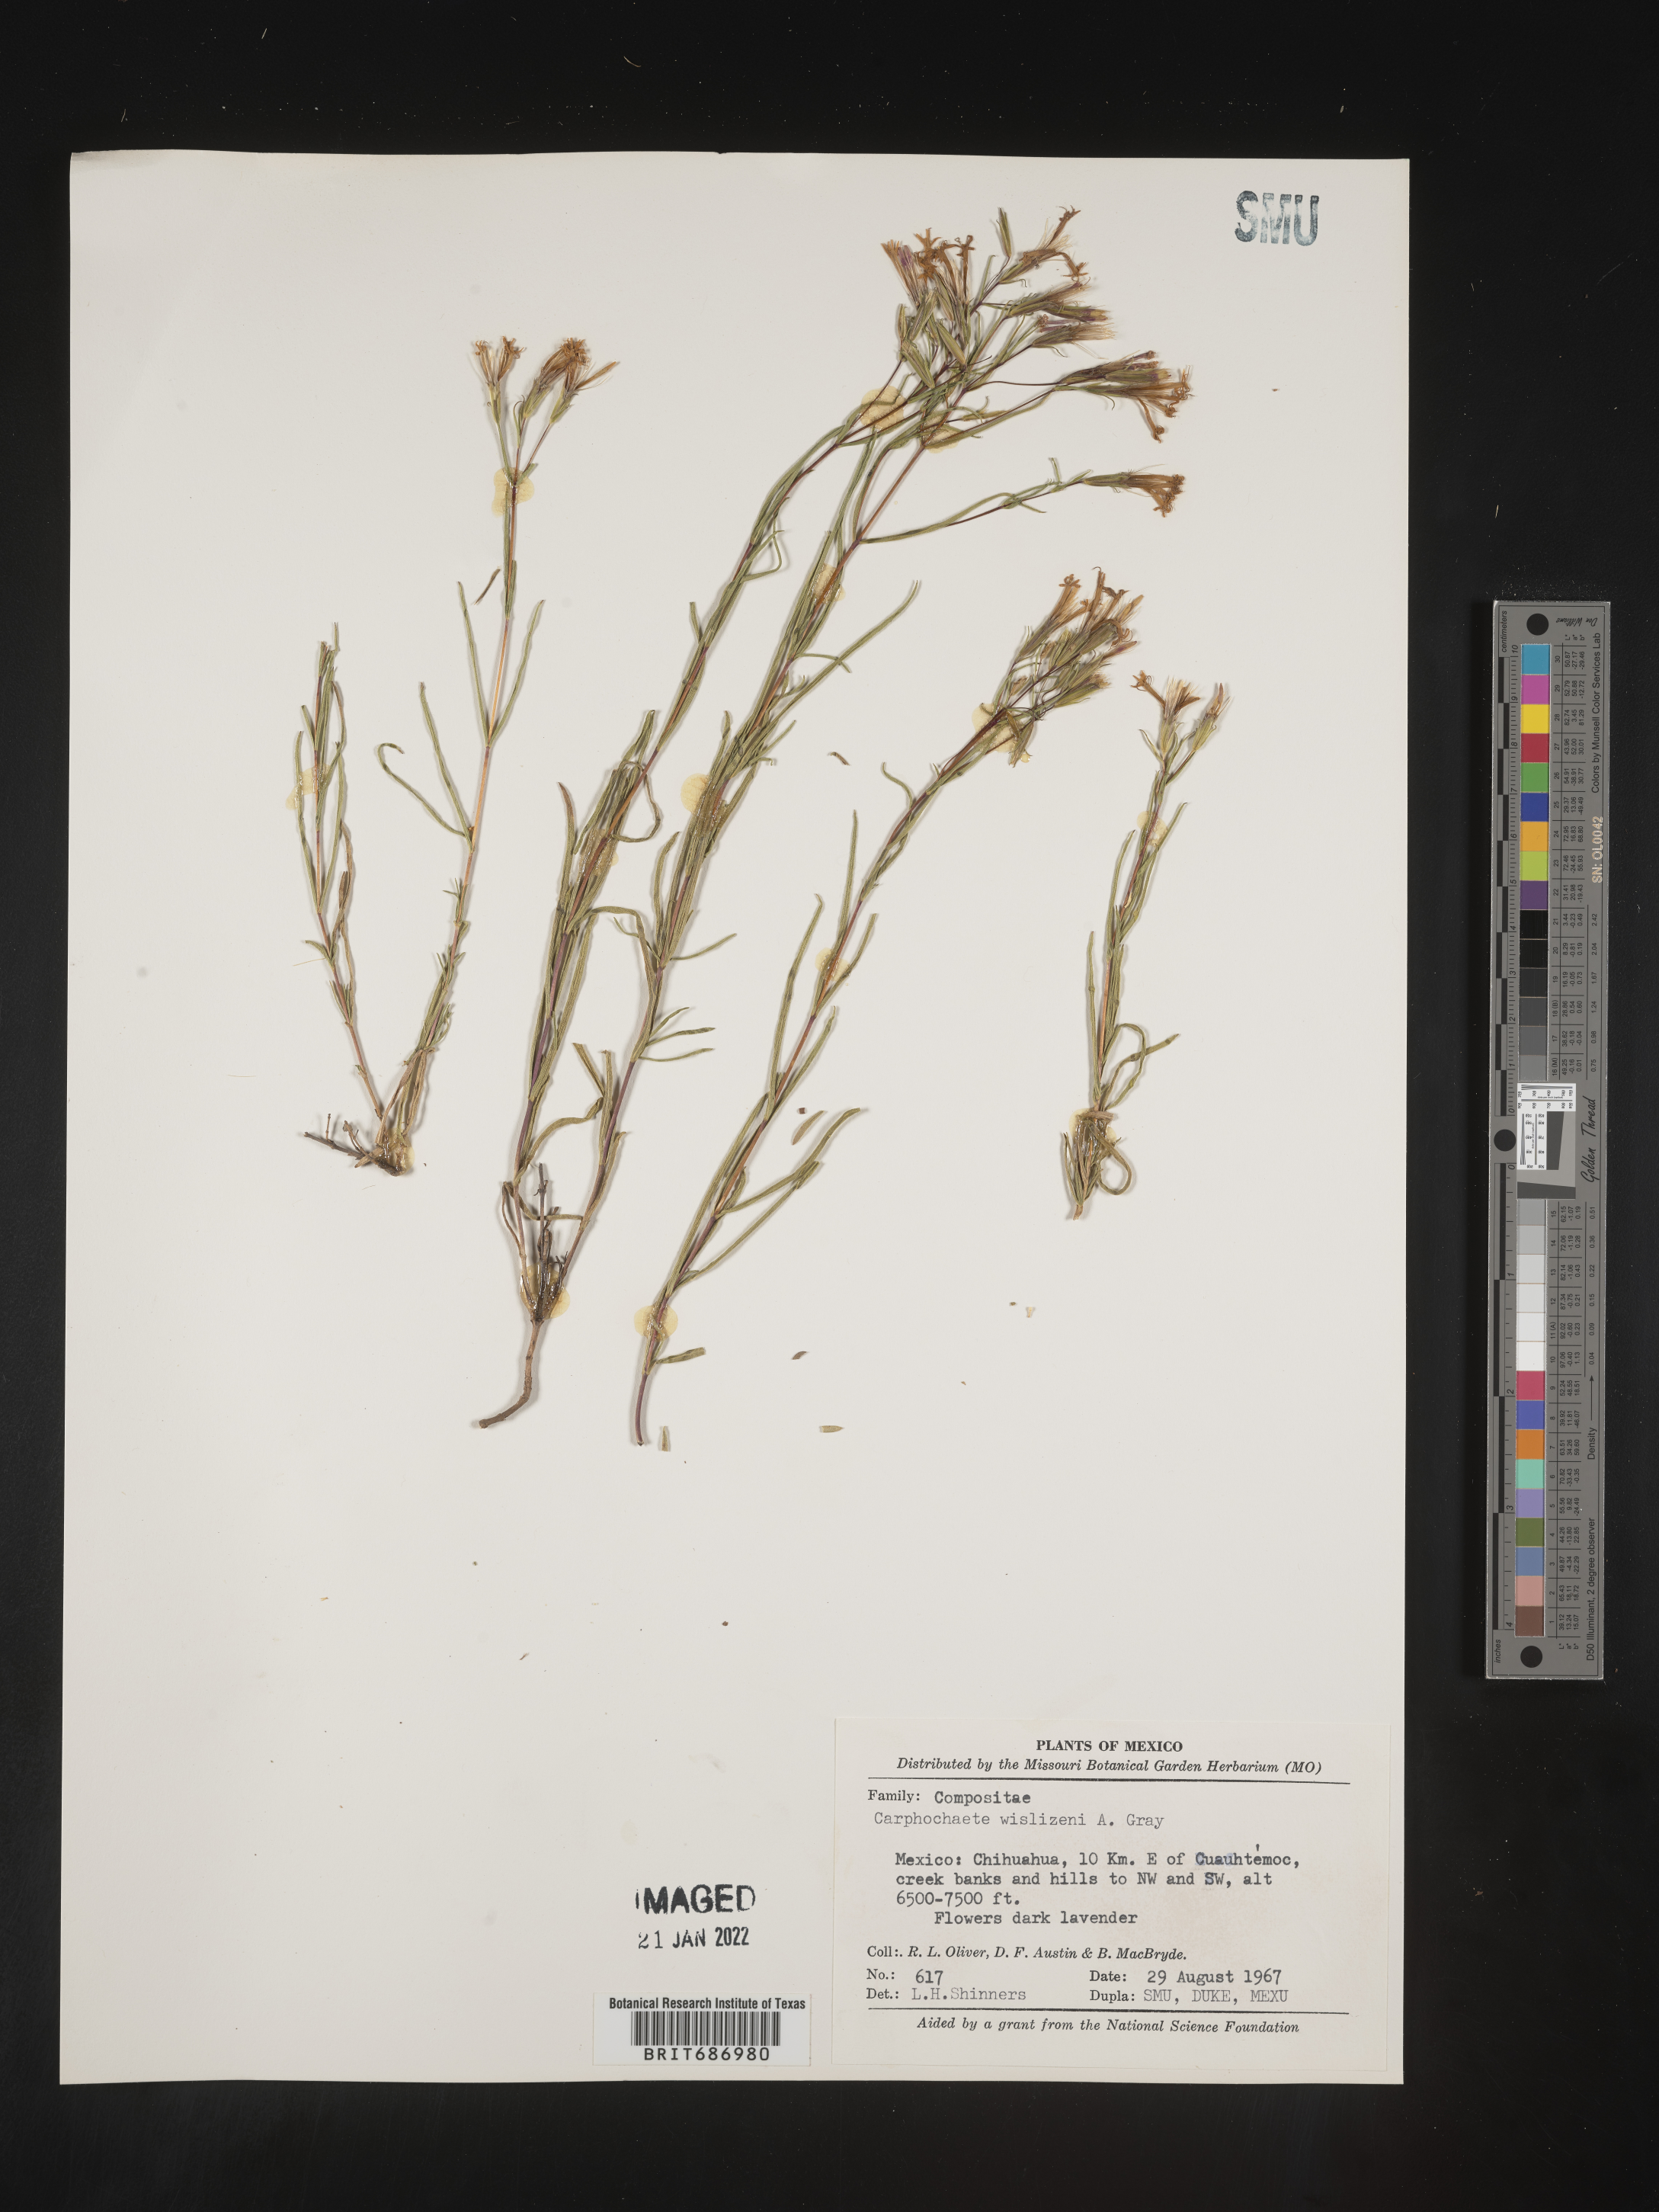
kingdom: Plantae
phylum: Tracheophyta
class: Magnoliopsida
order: Asterales
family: Asteraceae
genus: Carphochaete
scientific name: Carphochaete
